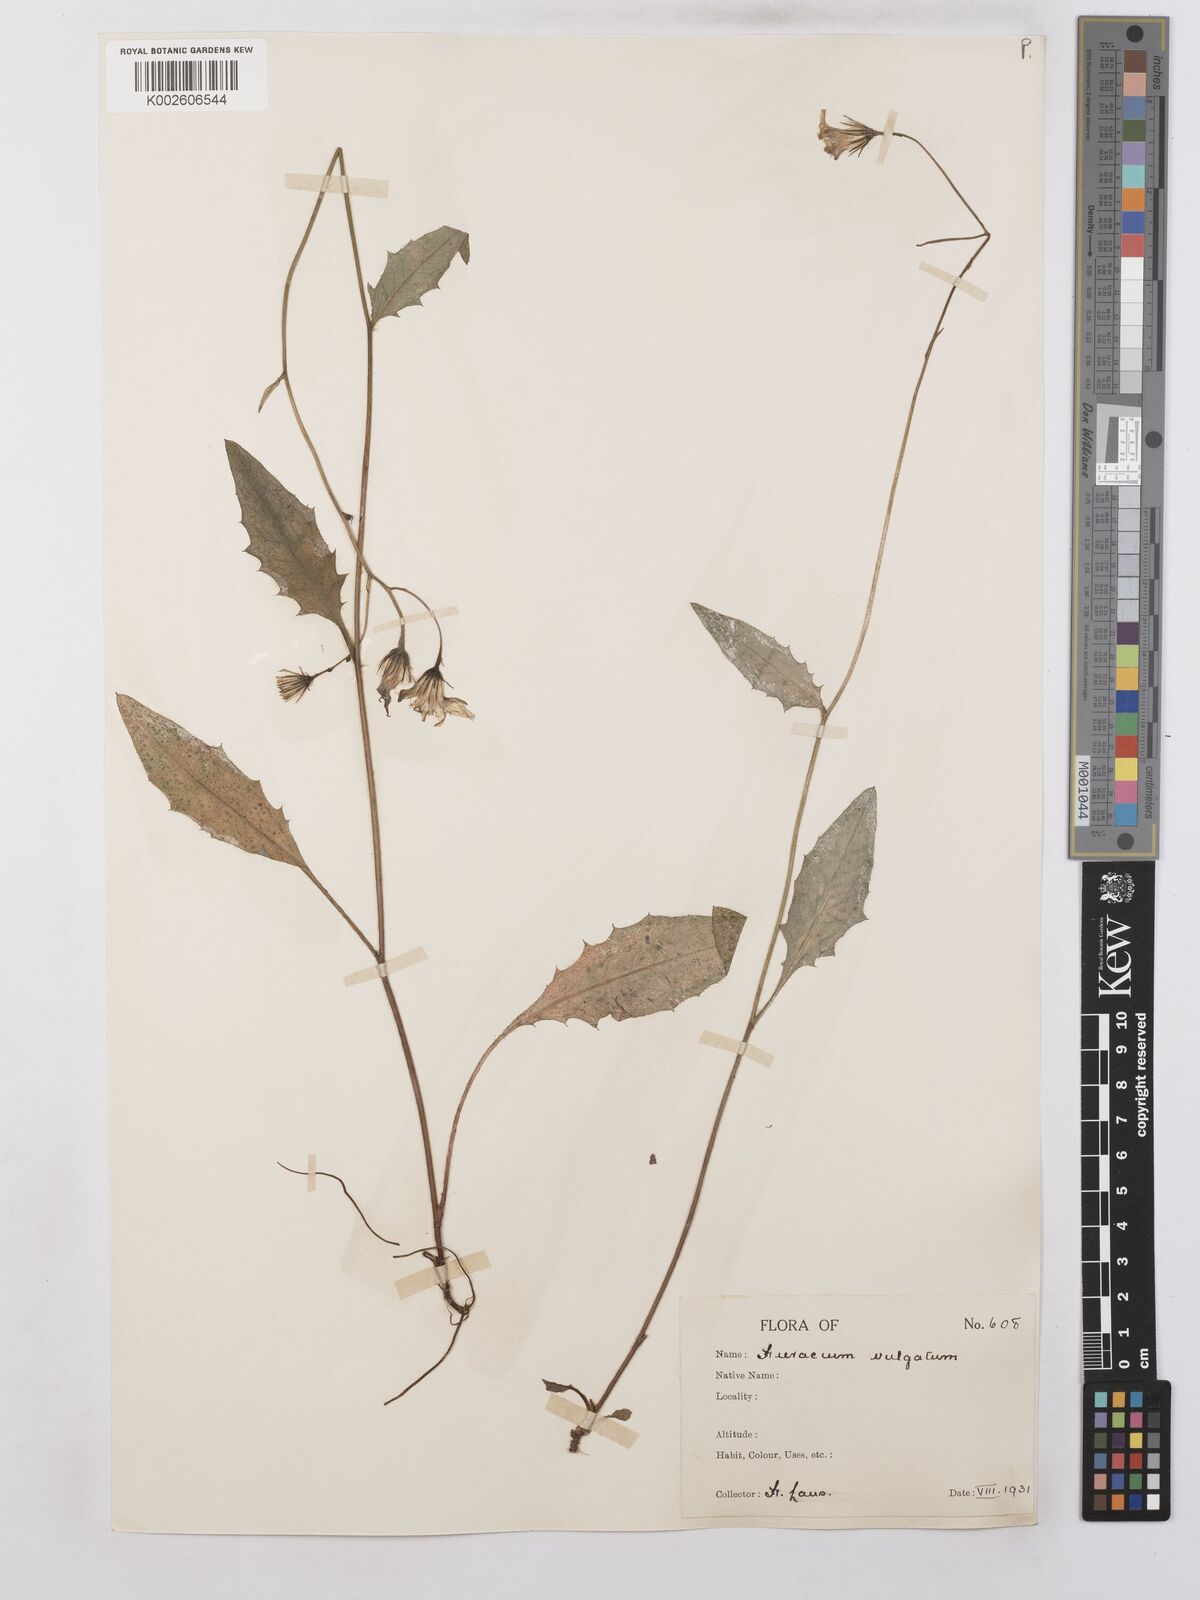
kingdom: Plantae
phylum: Tracheophyta
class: Magnoliopsida
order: Asterales
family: Asteraceae
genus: Hieracium
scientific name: Hieracium lachenalii
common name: Common hawkweed
